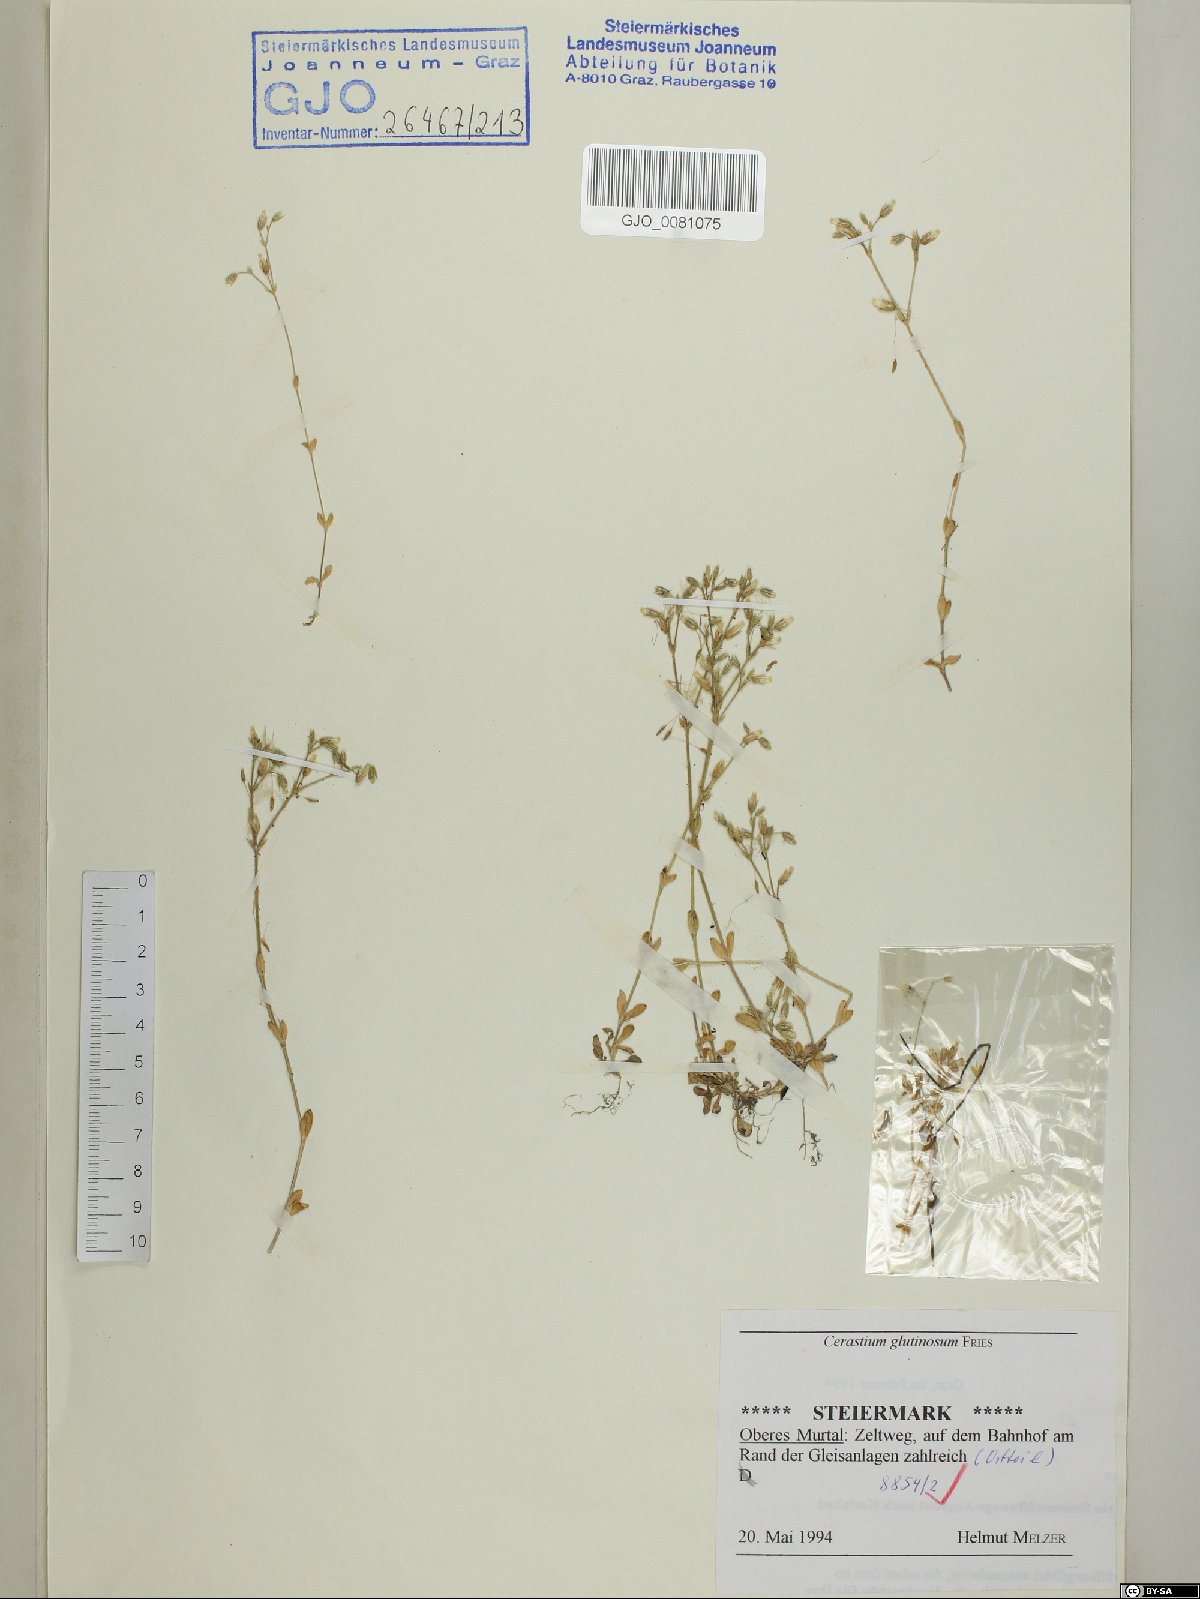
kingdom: Plantae
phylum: Tracheophyta
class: Magnoliopsida
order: Caryophyllales
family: Caryophyllaceae
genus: Cerastium
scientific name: Cerastium glutinosum
